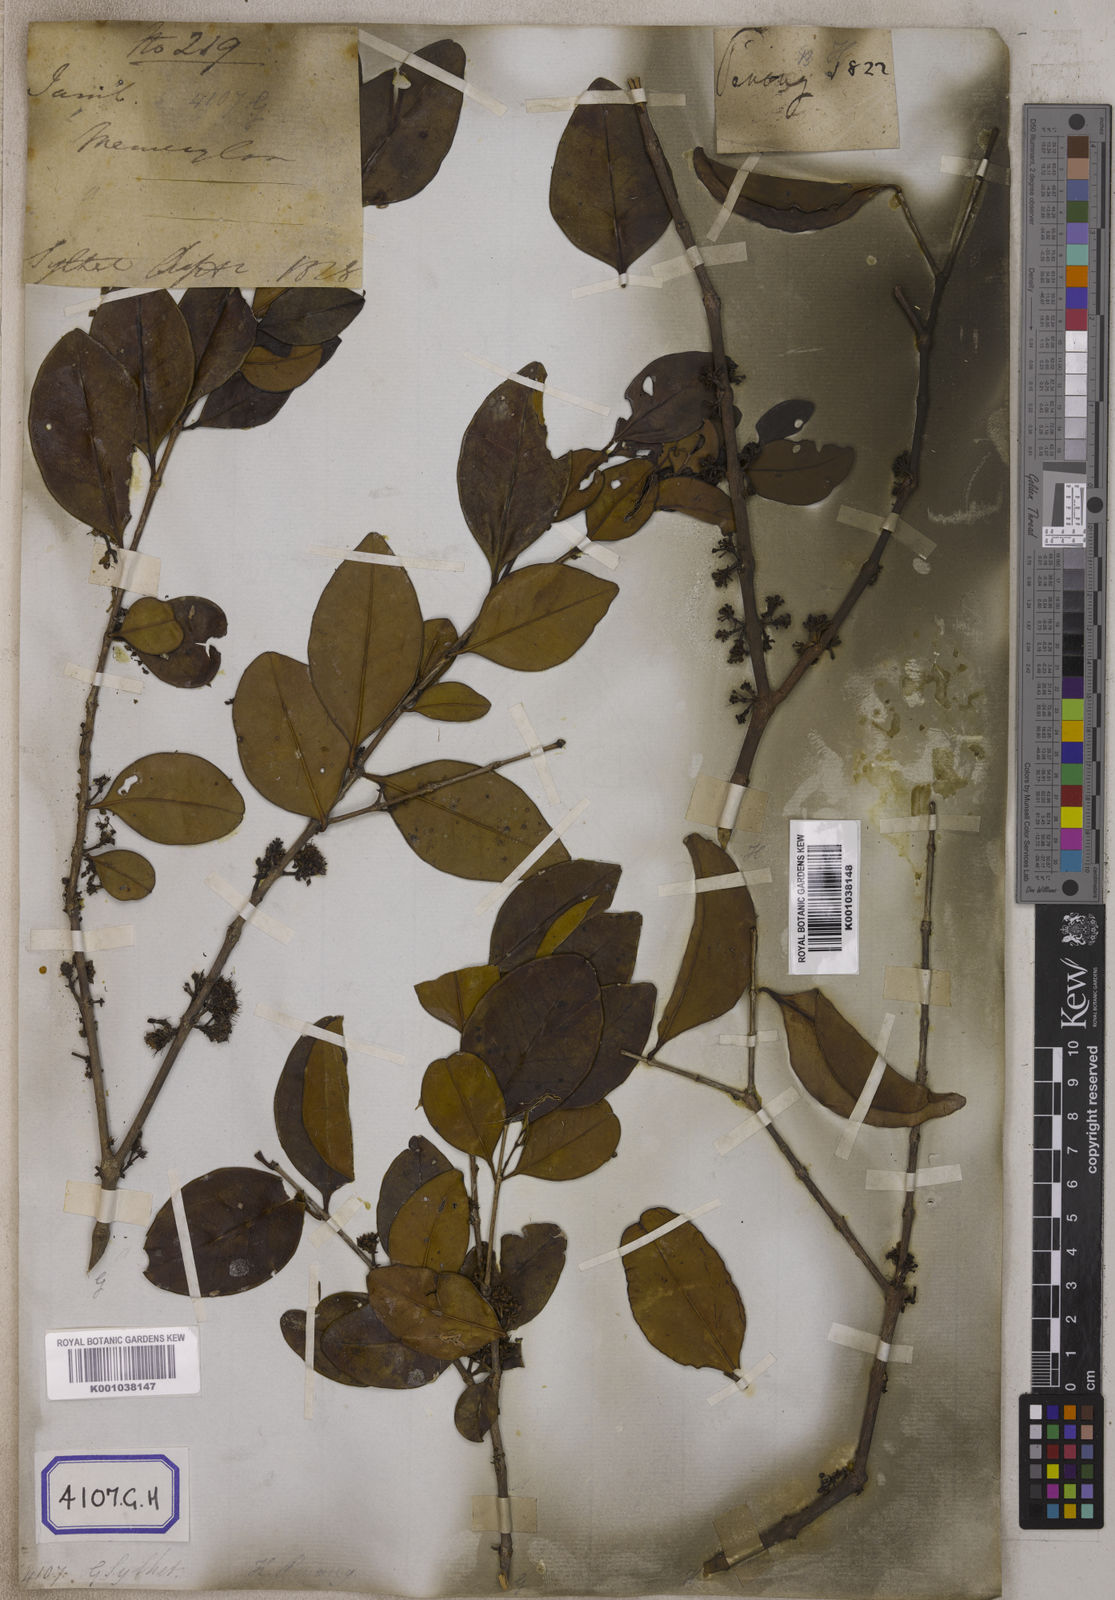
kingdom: Plantae
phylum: Tracheophyta
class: Magnoliopsida
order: Myrtales
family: Melastomataceae
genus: Memecylon
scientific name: Memecylon edule
